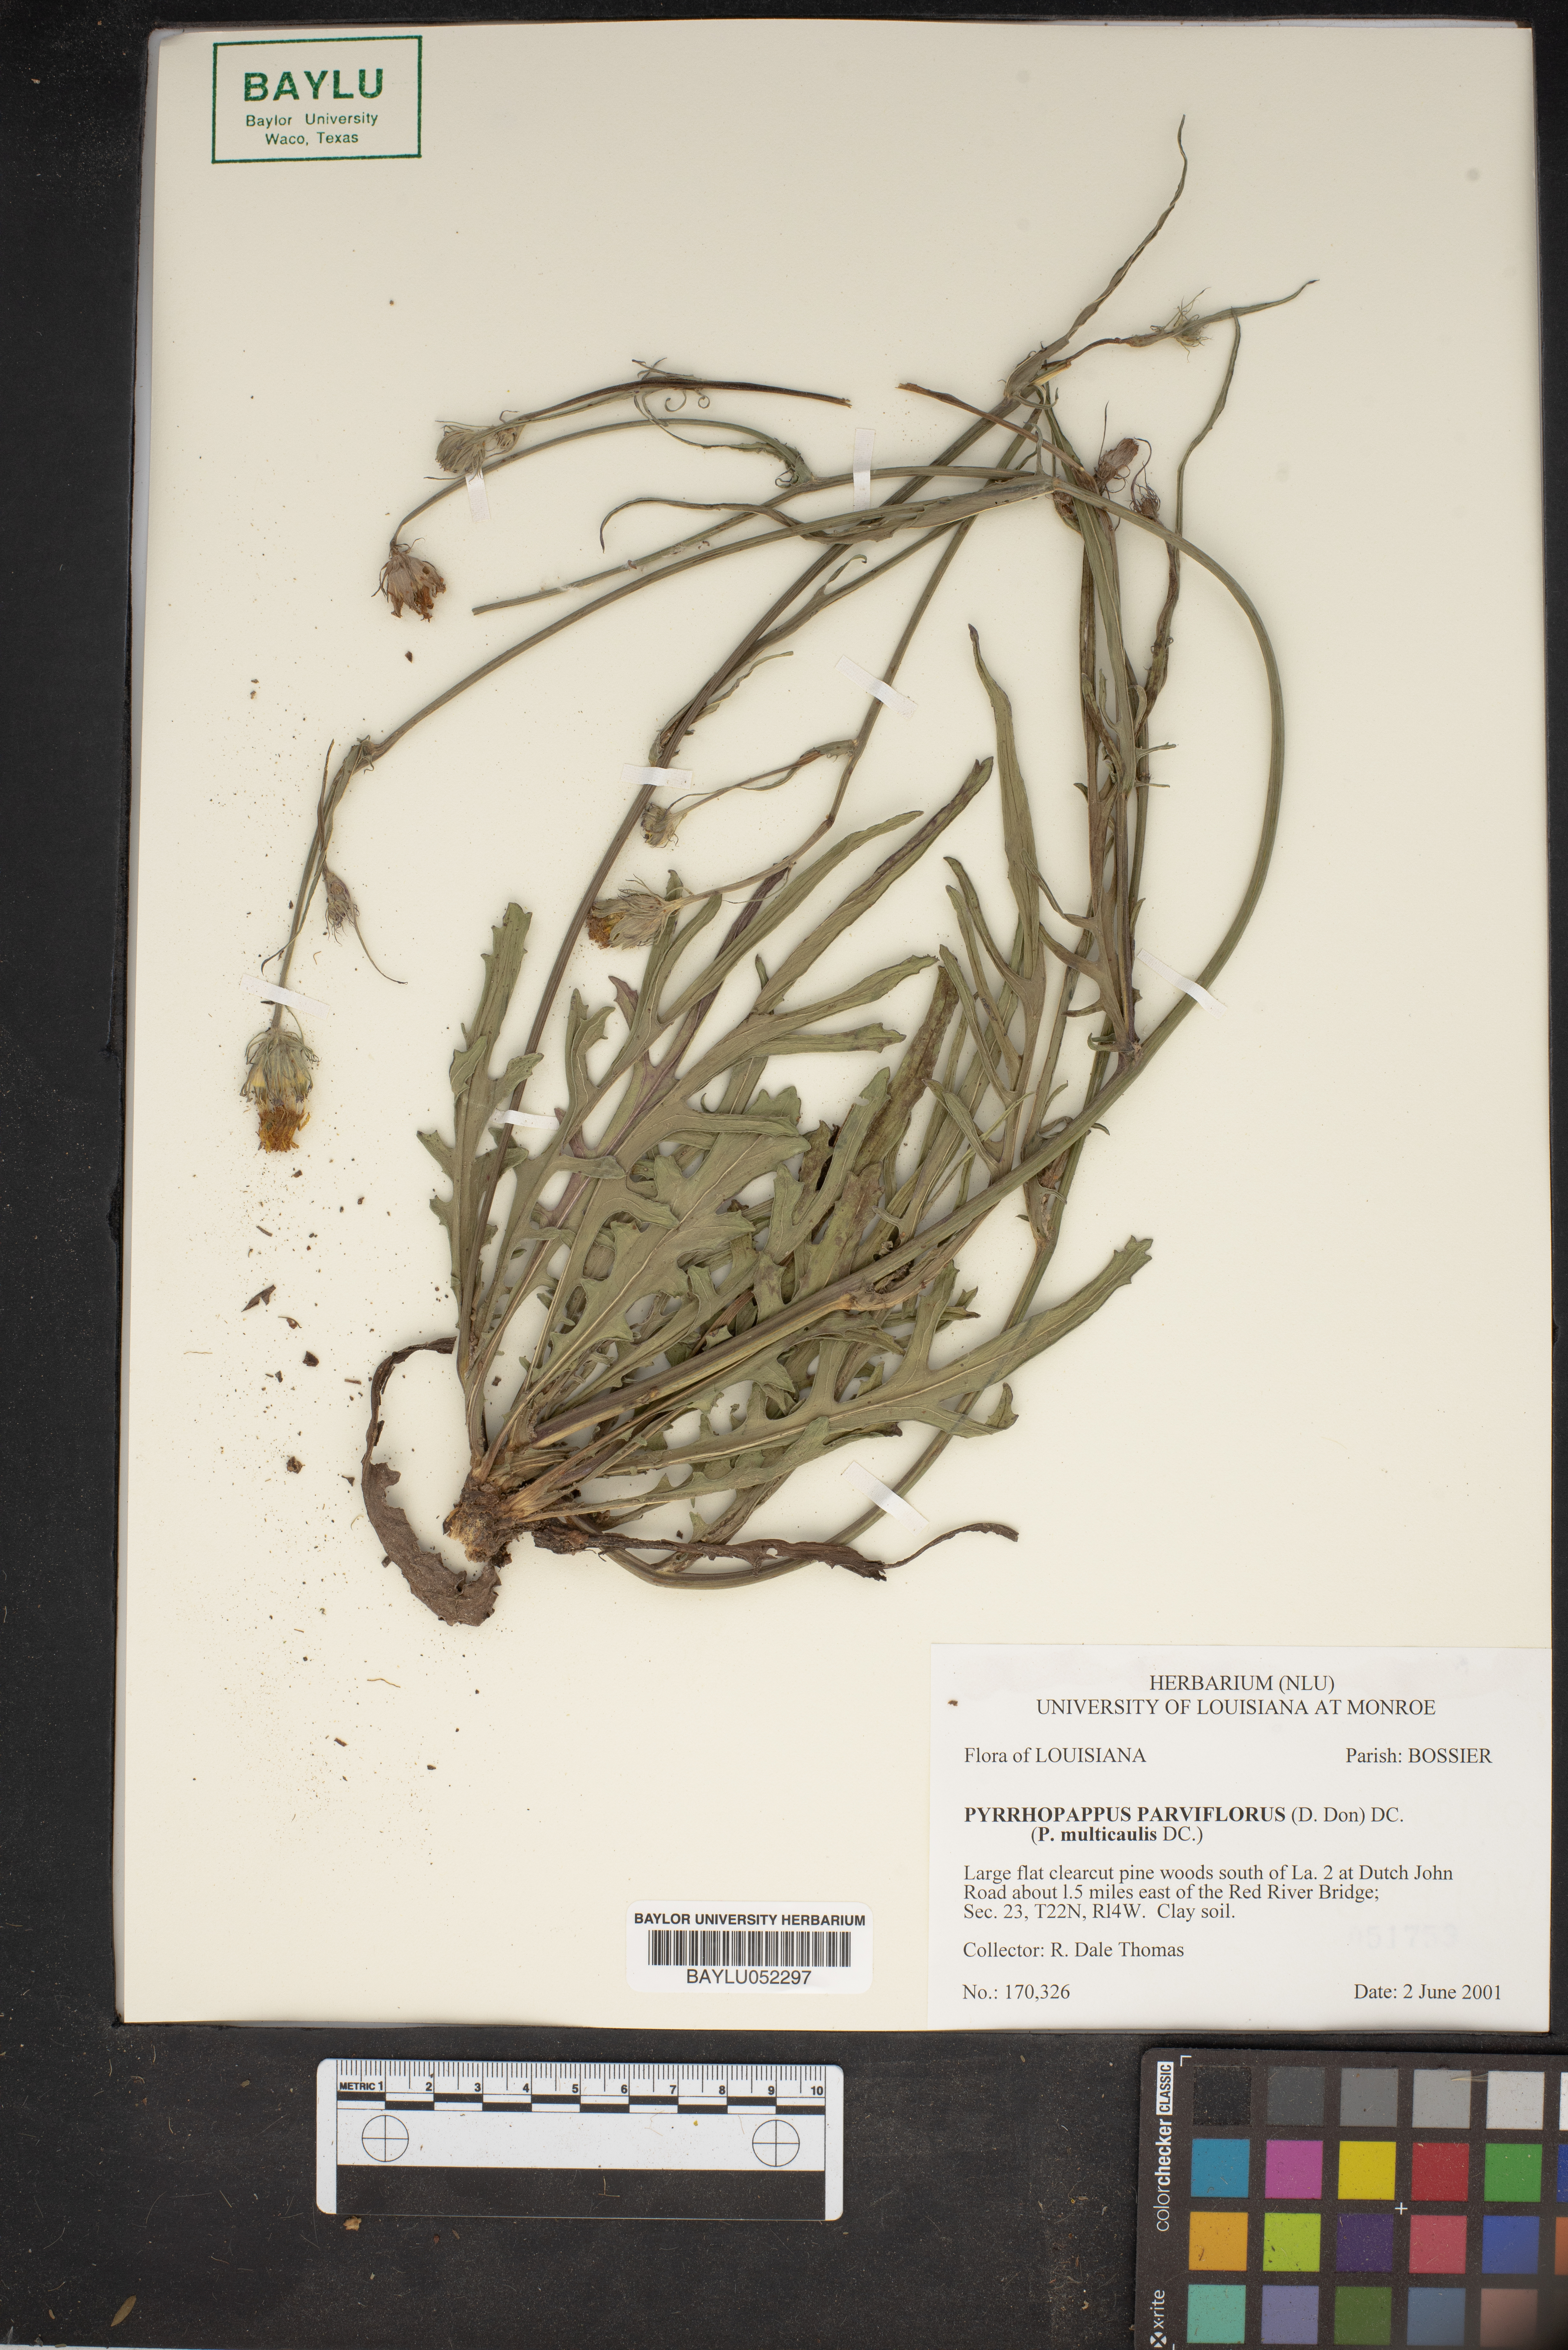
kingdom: Plantae
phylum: Tracheophyta
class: Magnoliopsida
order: Asterales
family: Asteraceae
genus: Pyrrhopappus
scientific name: Pyrrhopappus pauciflorus
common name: Texas false dandelion
